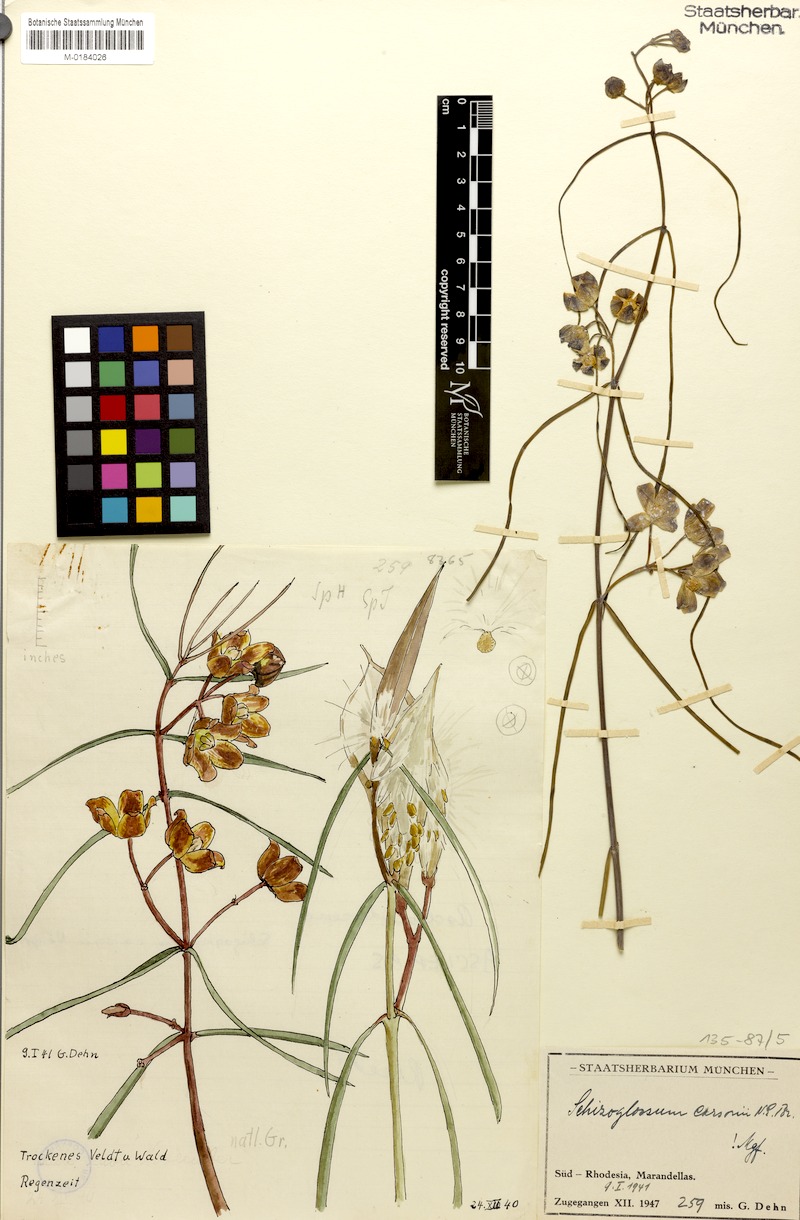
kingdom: Plantae
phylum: Tracheophyta
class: Magnoliopsida
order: Gentianales
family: Apocynaceae
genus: Glossostelma
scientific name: Glossostelma carsonii
